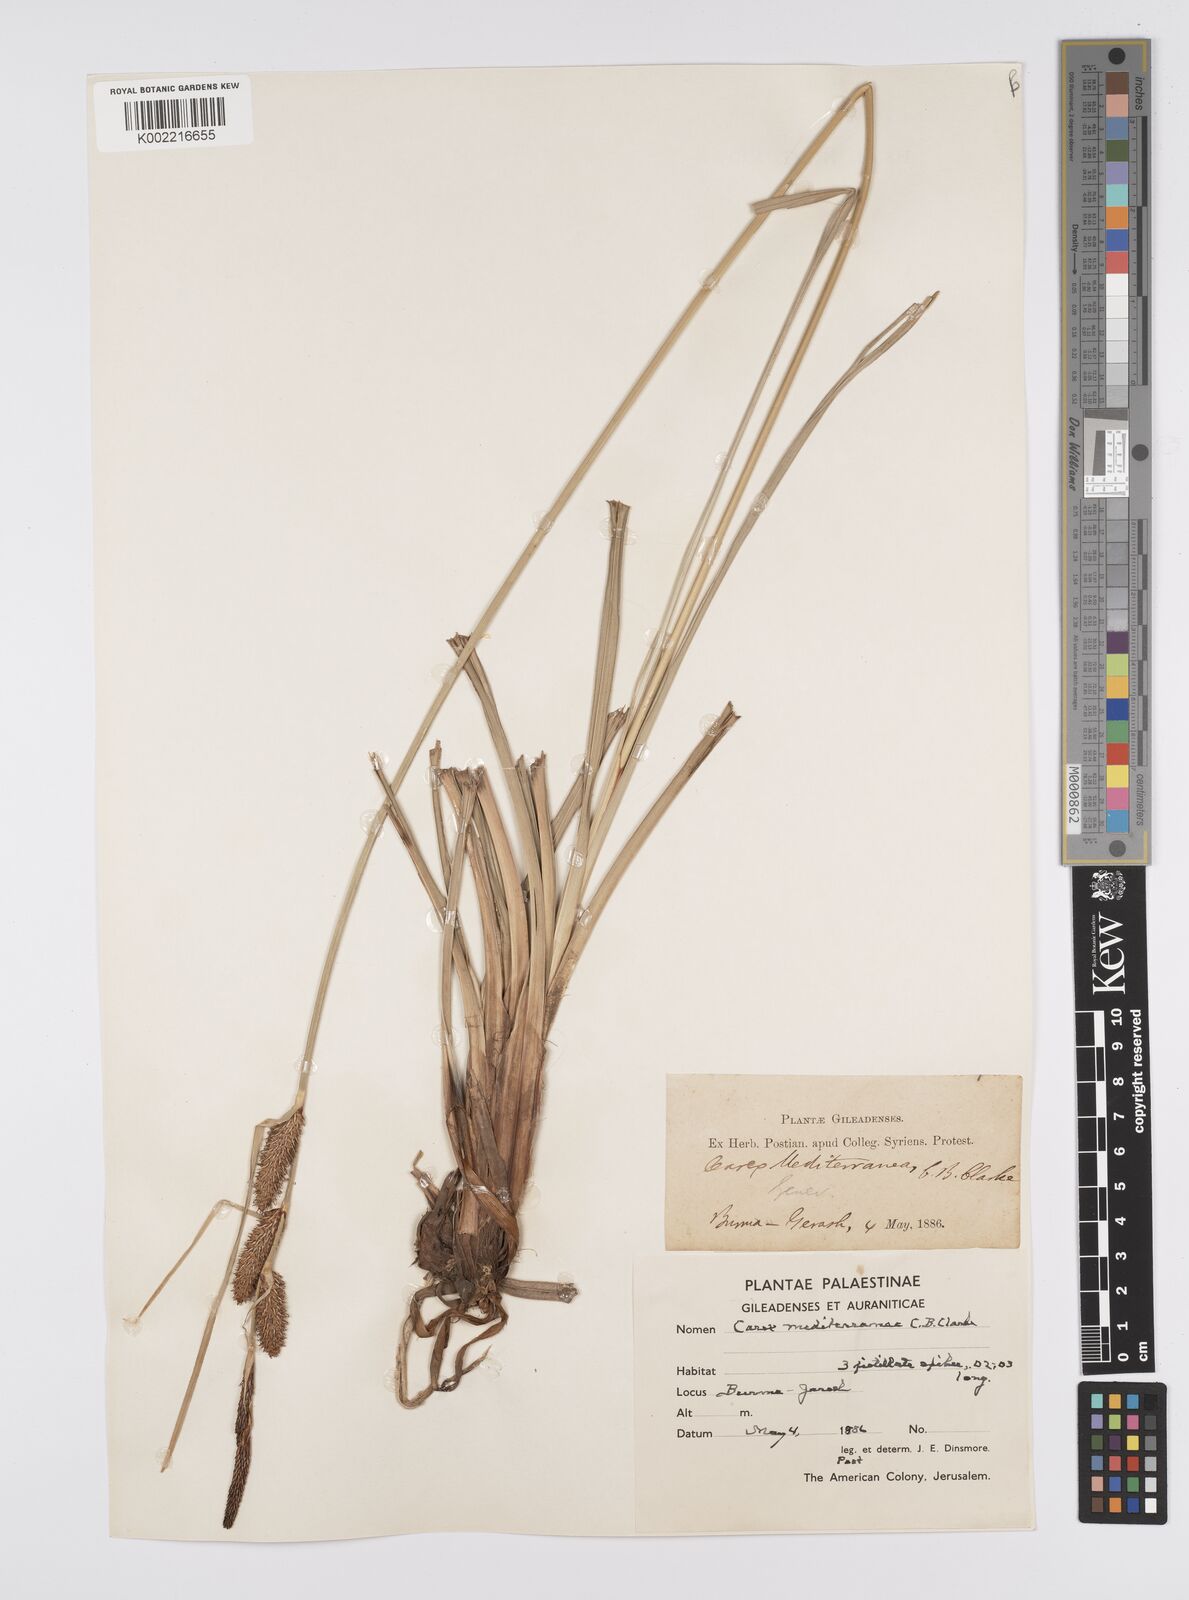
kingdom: Plantae
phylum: Tracheophyta
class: Liliopsida
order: Poales
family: Cyperaceae
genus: Carex
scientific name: Carex hispida
